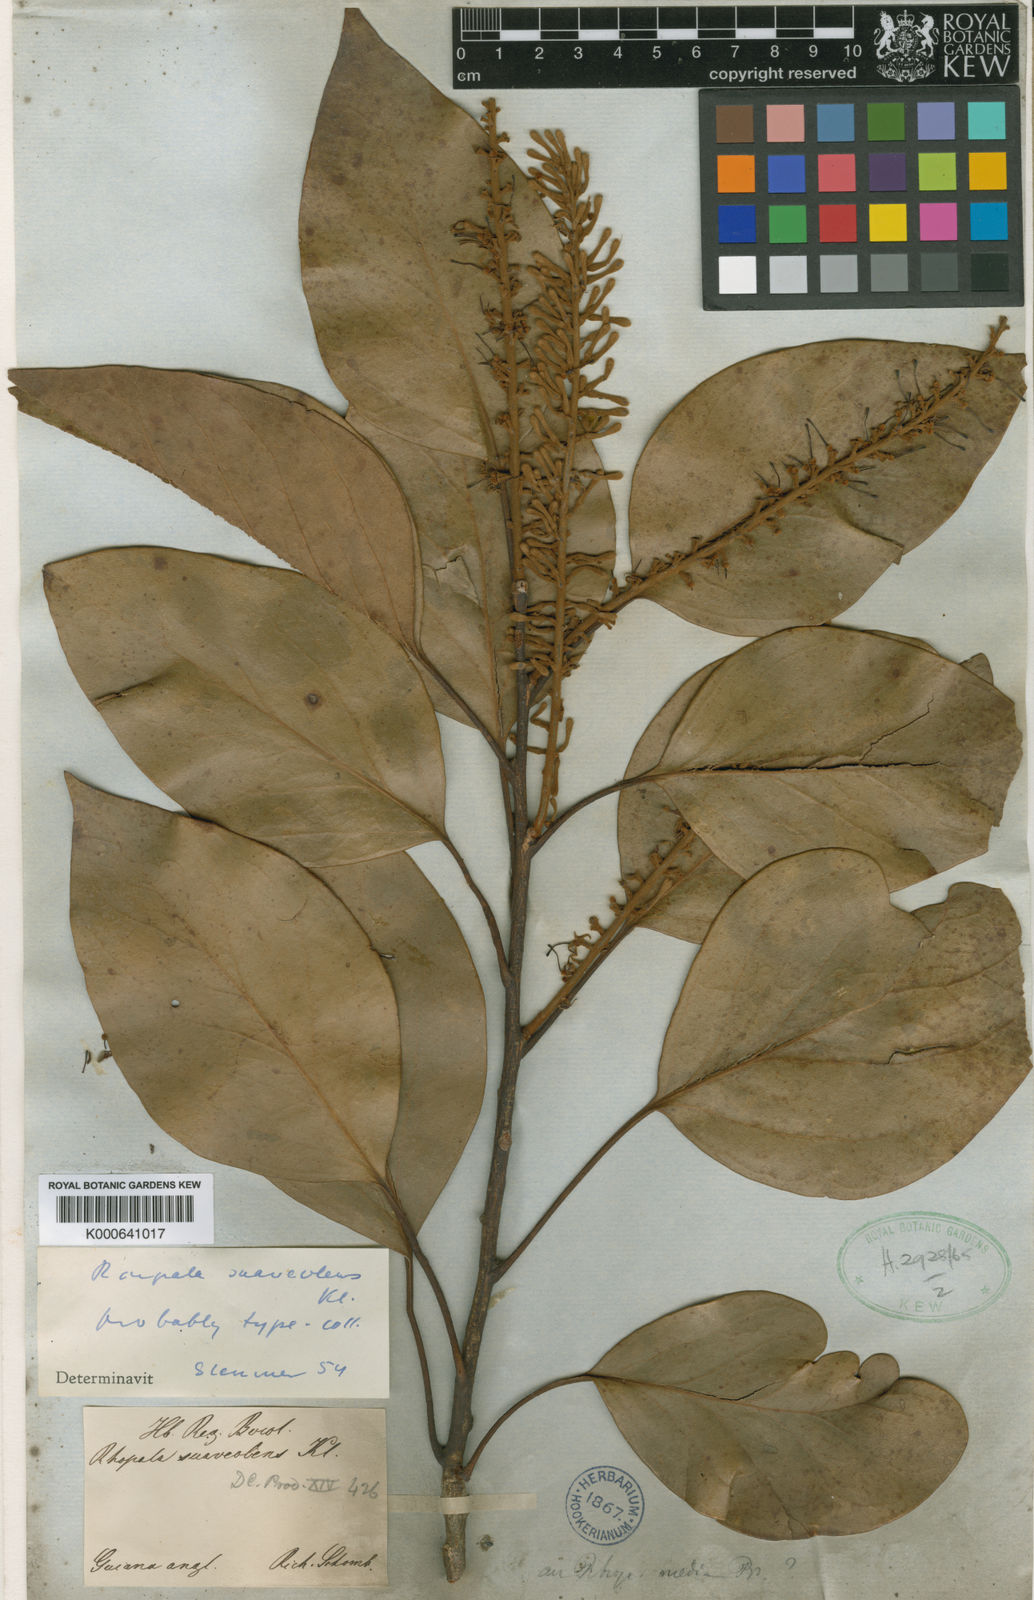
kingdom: Plantae
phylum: Tracheophyta
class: Magnoliopsida
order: Proteales
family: Proteaceae
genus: Roupala
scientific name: Roupala suaveolens
